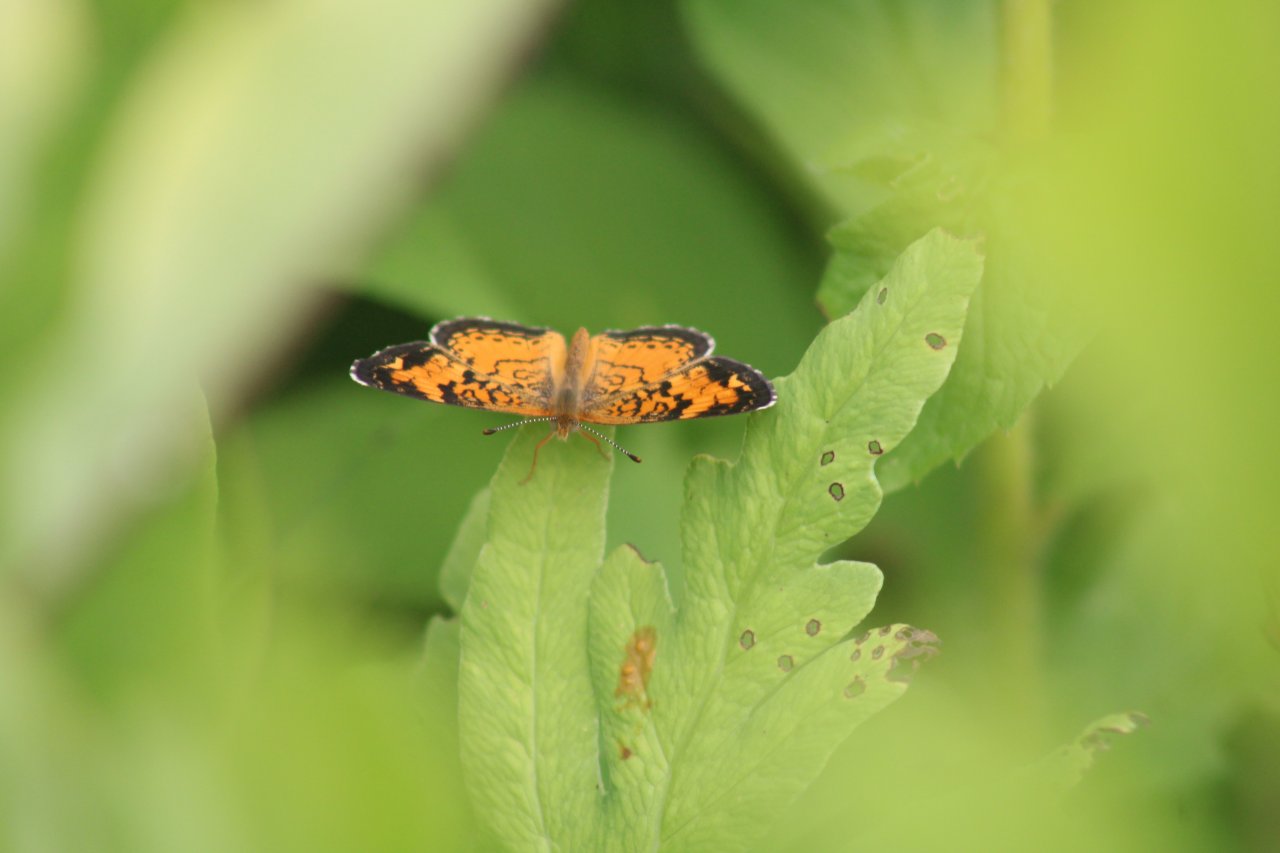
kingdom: Animalia
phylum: Arthropoda
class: Insecta
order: Lepidoptera
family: Nymphalidae
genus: Phyciodes
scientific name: Phyciodes tharos
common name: Pearl Crescent
